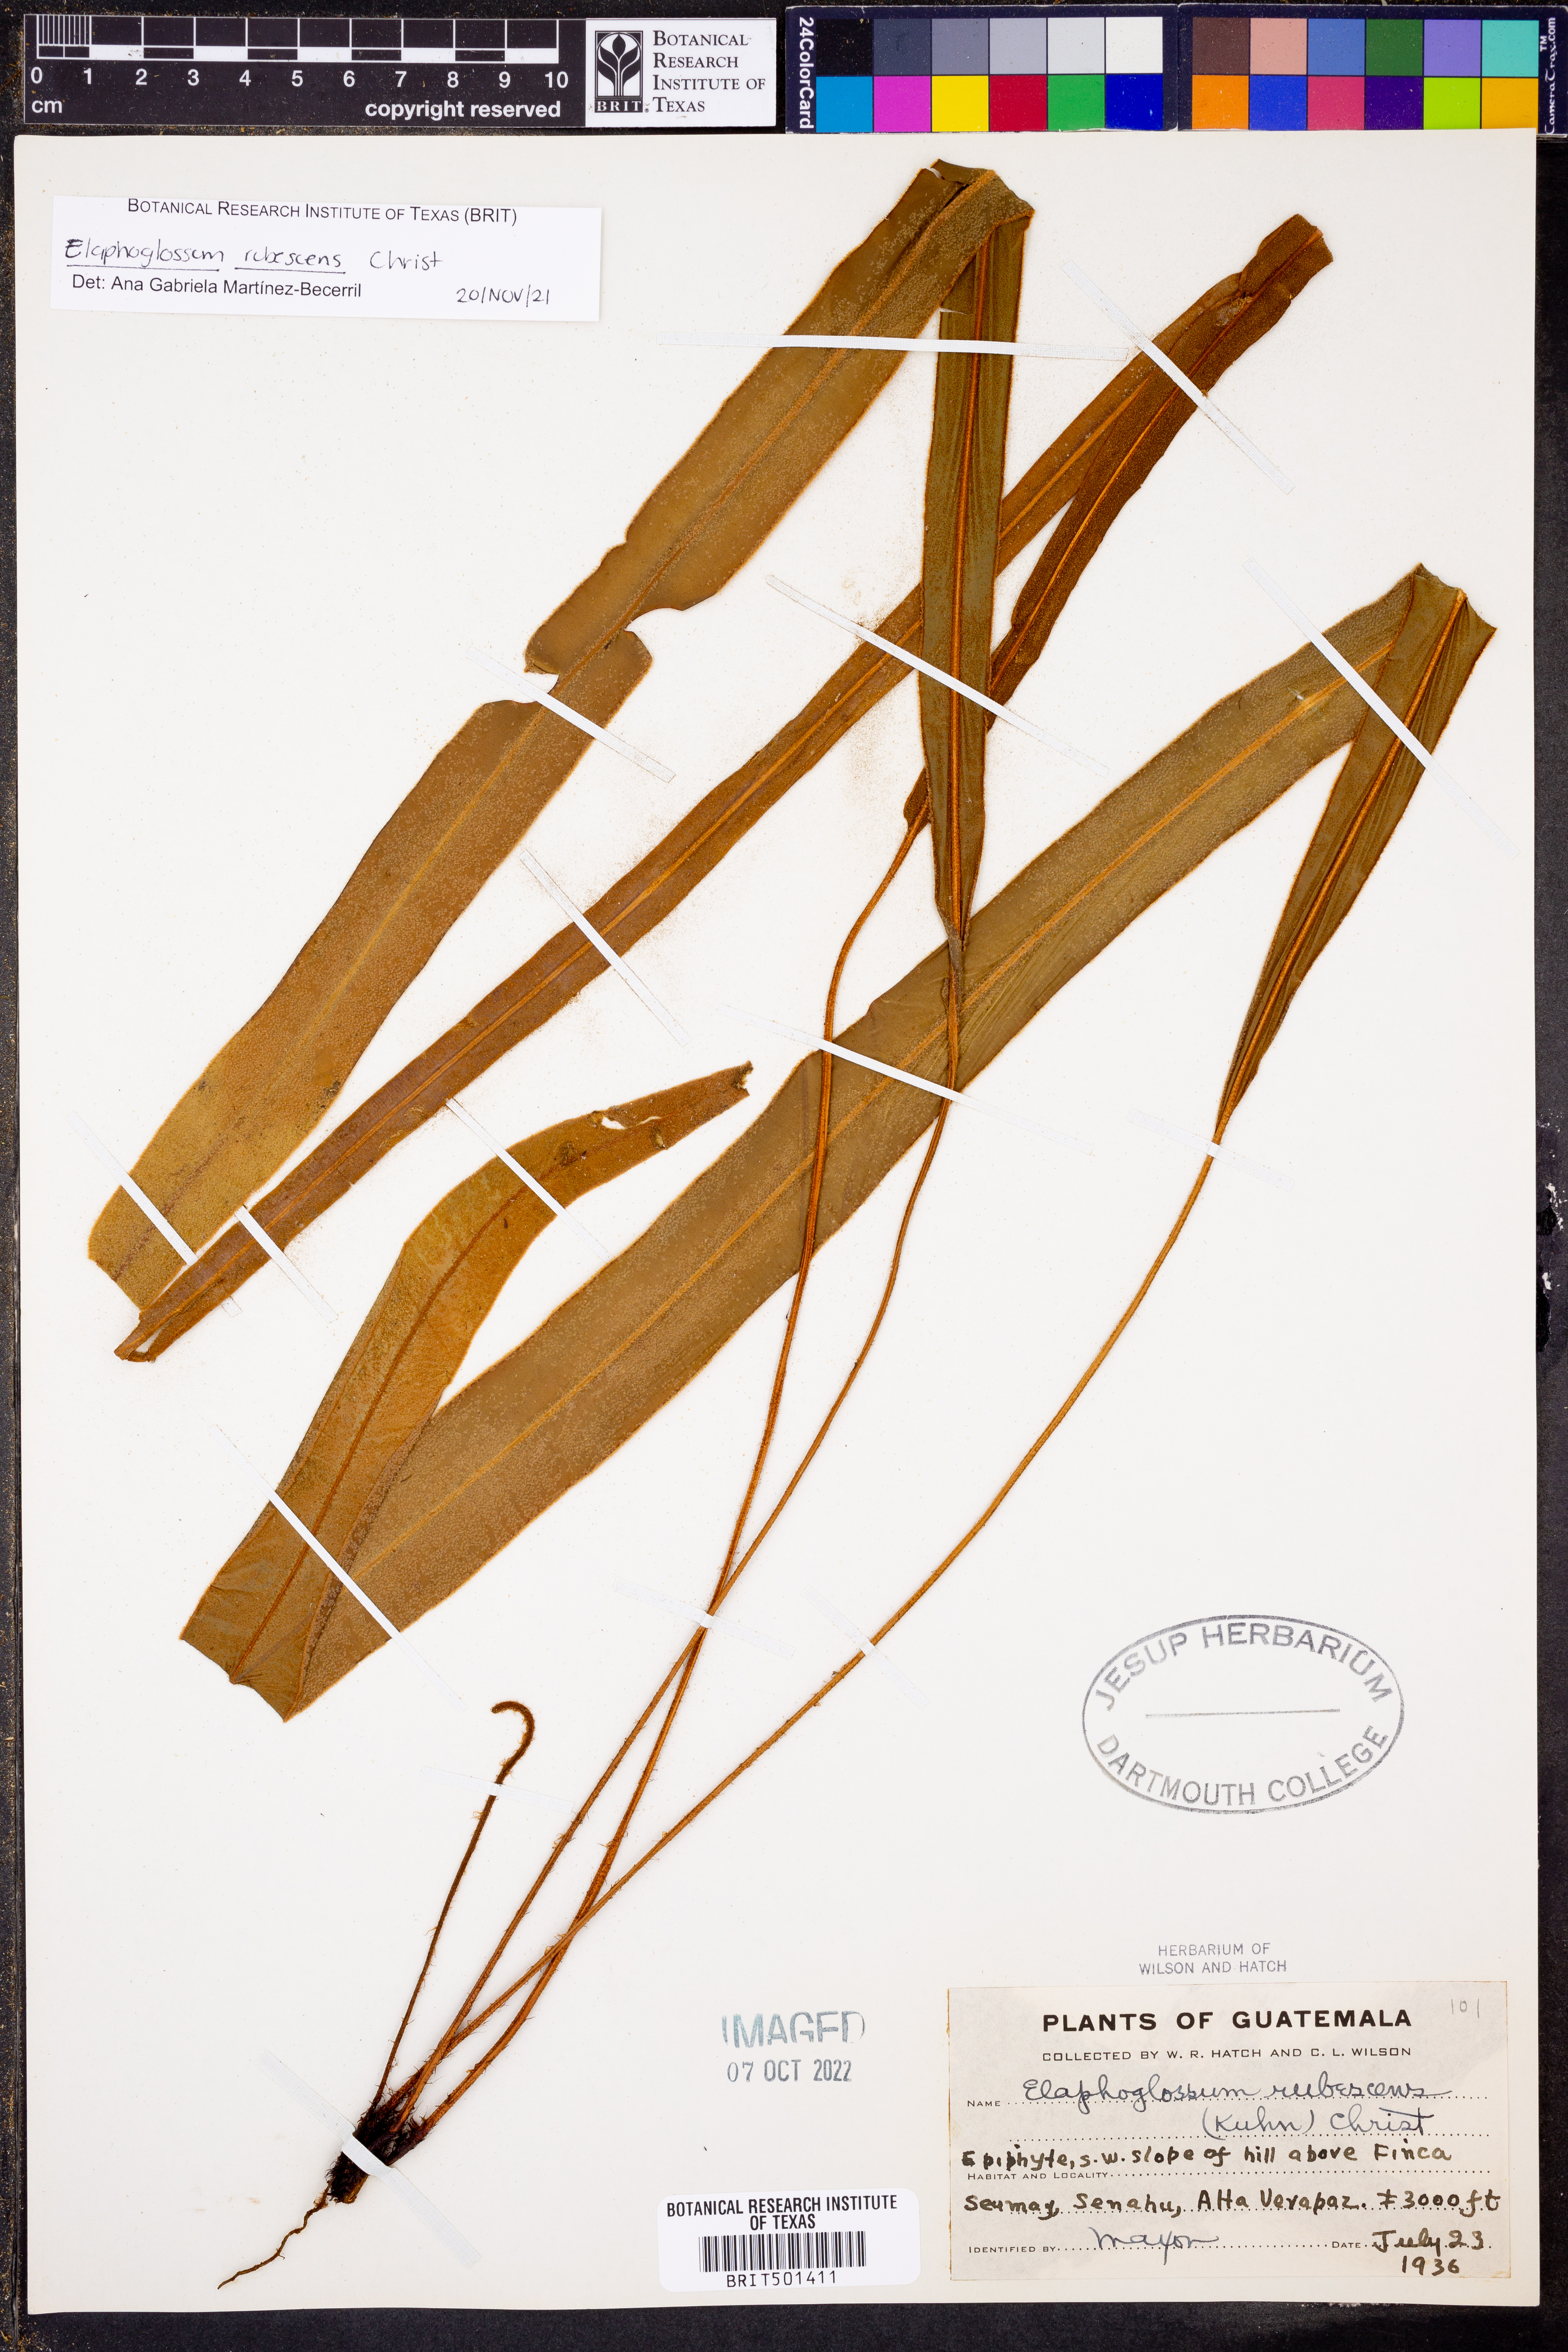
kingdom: Plantae
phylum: Tracheophyta
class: Polypodiopsida
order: Polypodiales
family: Dryopteridaceae
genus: Elaphoglossum
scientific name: Elaphoglossum rubescens
